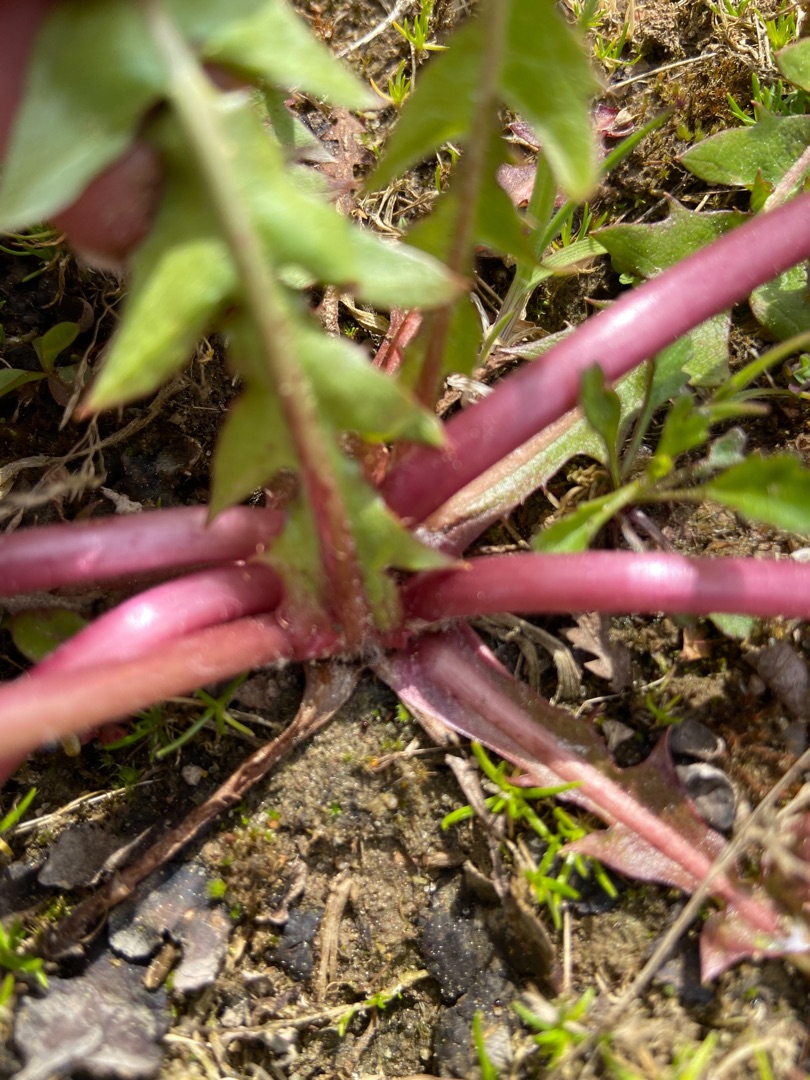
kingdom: Plantae
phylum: Tracheophyta
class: Magnoliopsida
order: Asterales
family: Asteraceae
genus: Taraxacum
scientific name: Taraxacum polyodon
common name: Takket vejmælkebøtte
